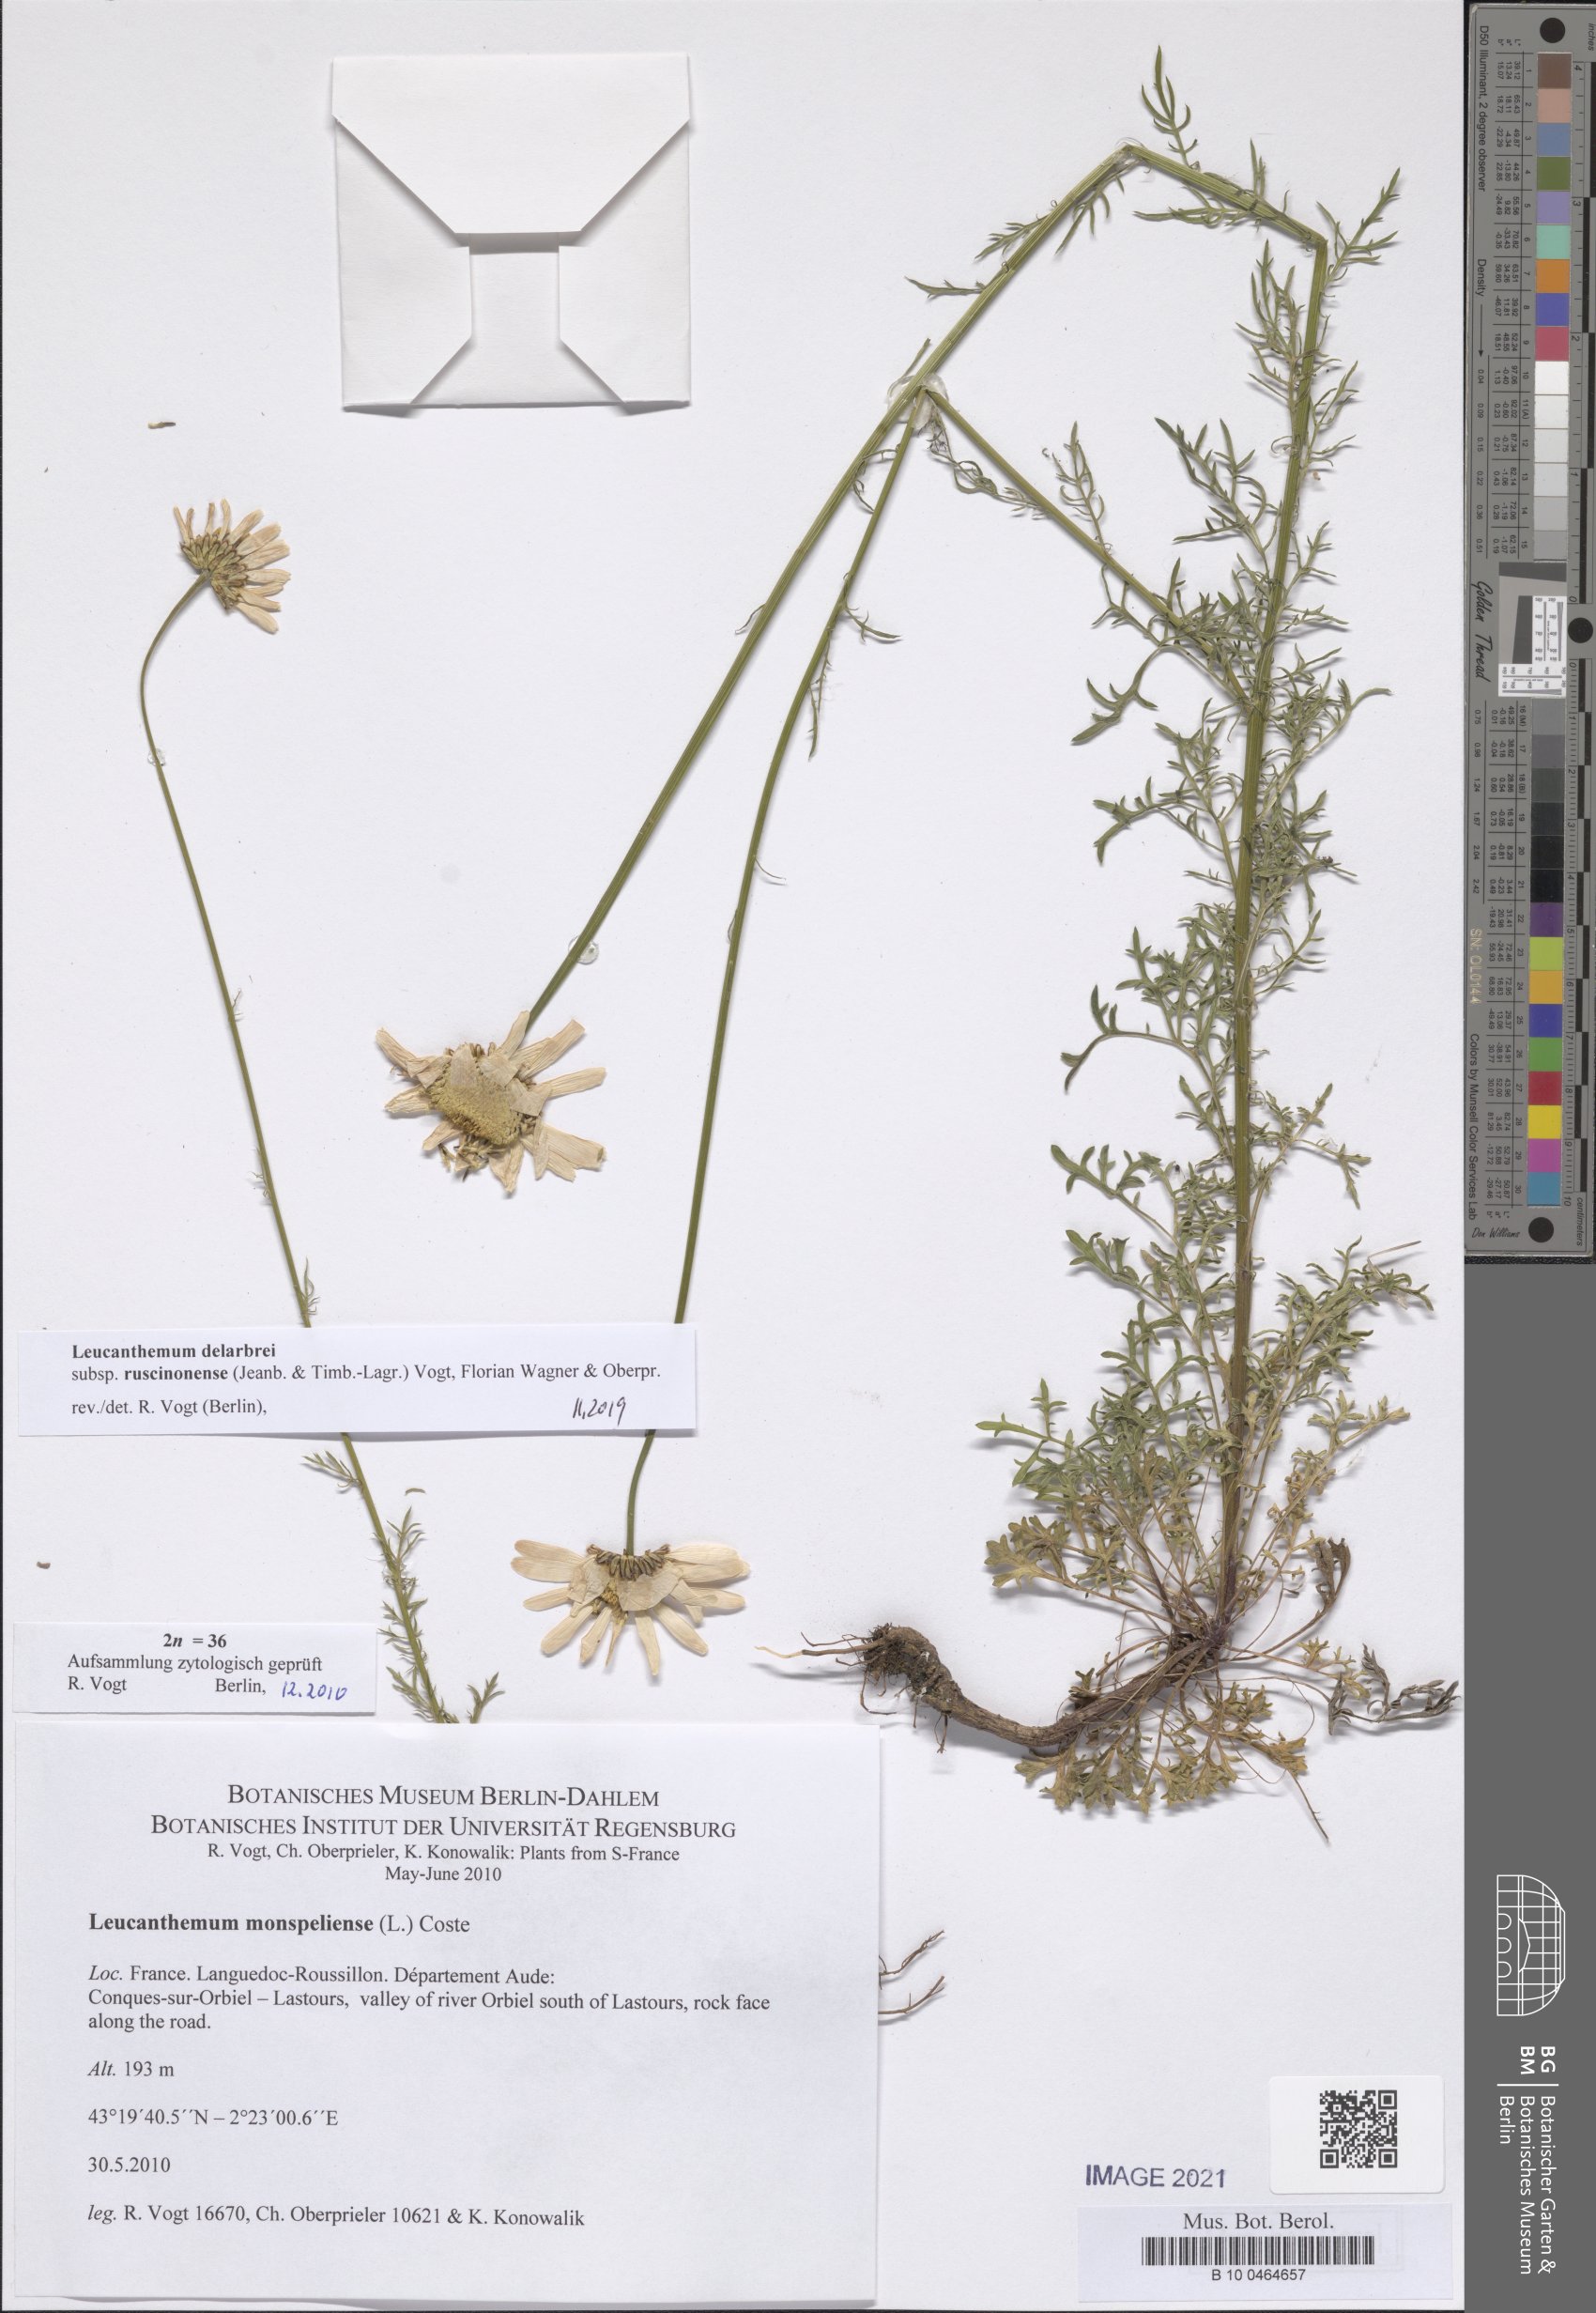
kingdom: Plantae
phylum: Tracheophyta
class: Magnoliopsida
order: Asterales
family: Asteraceae
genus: Leucanthemum
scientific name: Leucanthemum delarbrei
